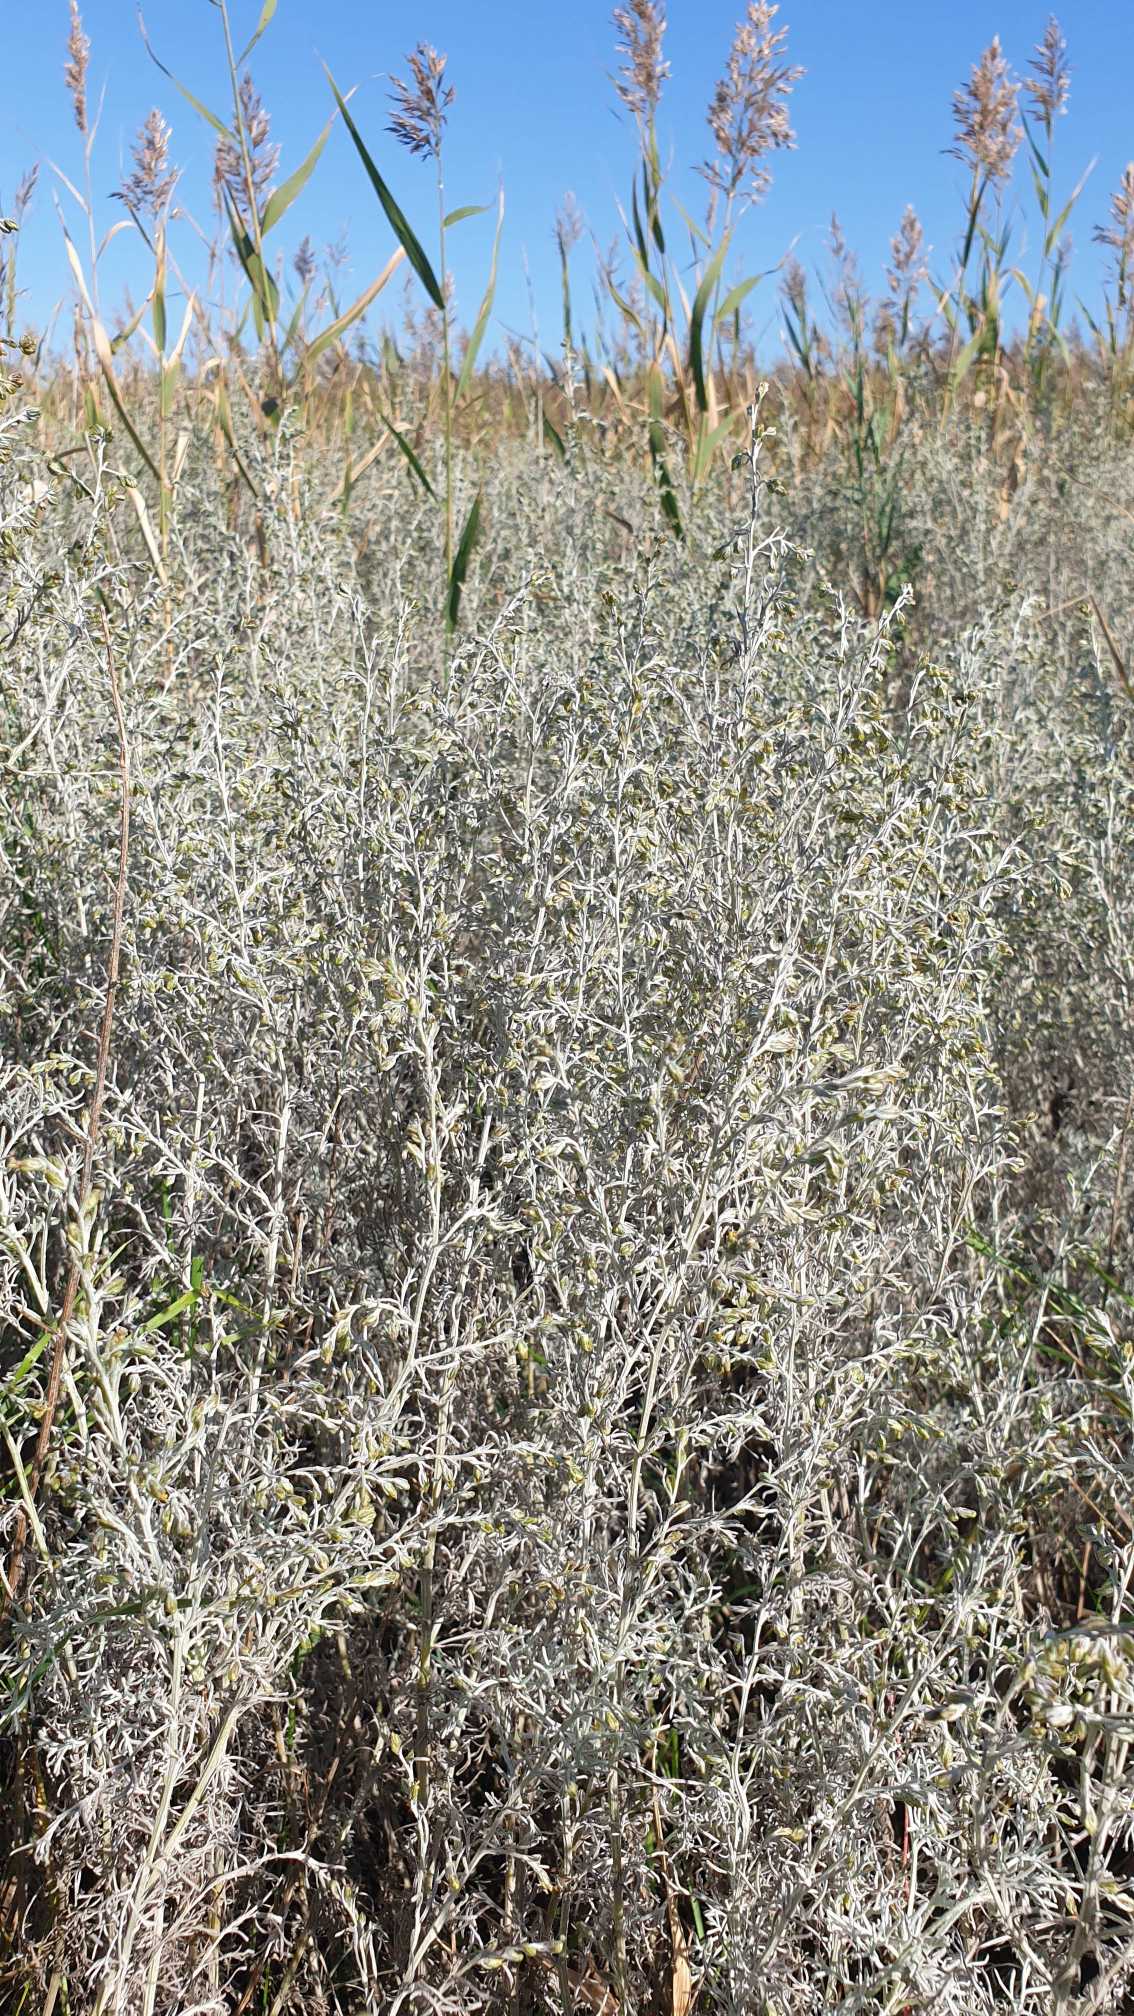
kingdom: Plantae
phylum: Tracheophyta
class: Magnoliopsida
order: Asterales
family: Asteraceae
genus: Artemisia
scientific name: Artemisia maritima
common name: Strandmalurt
